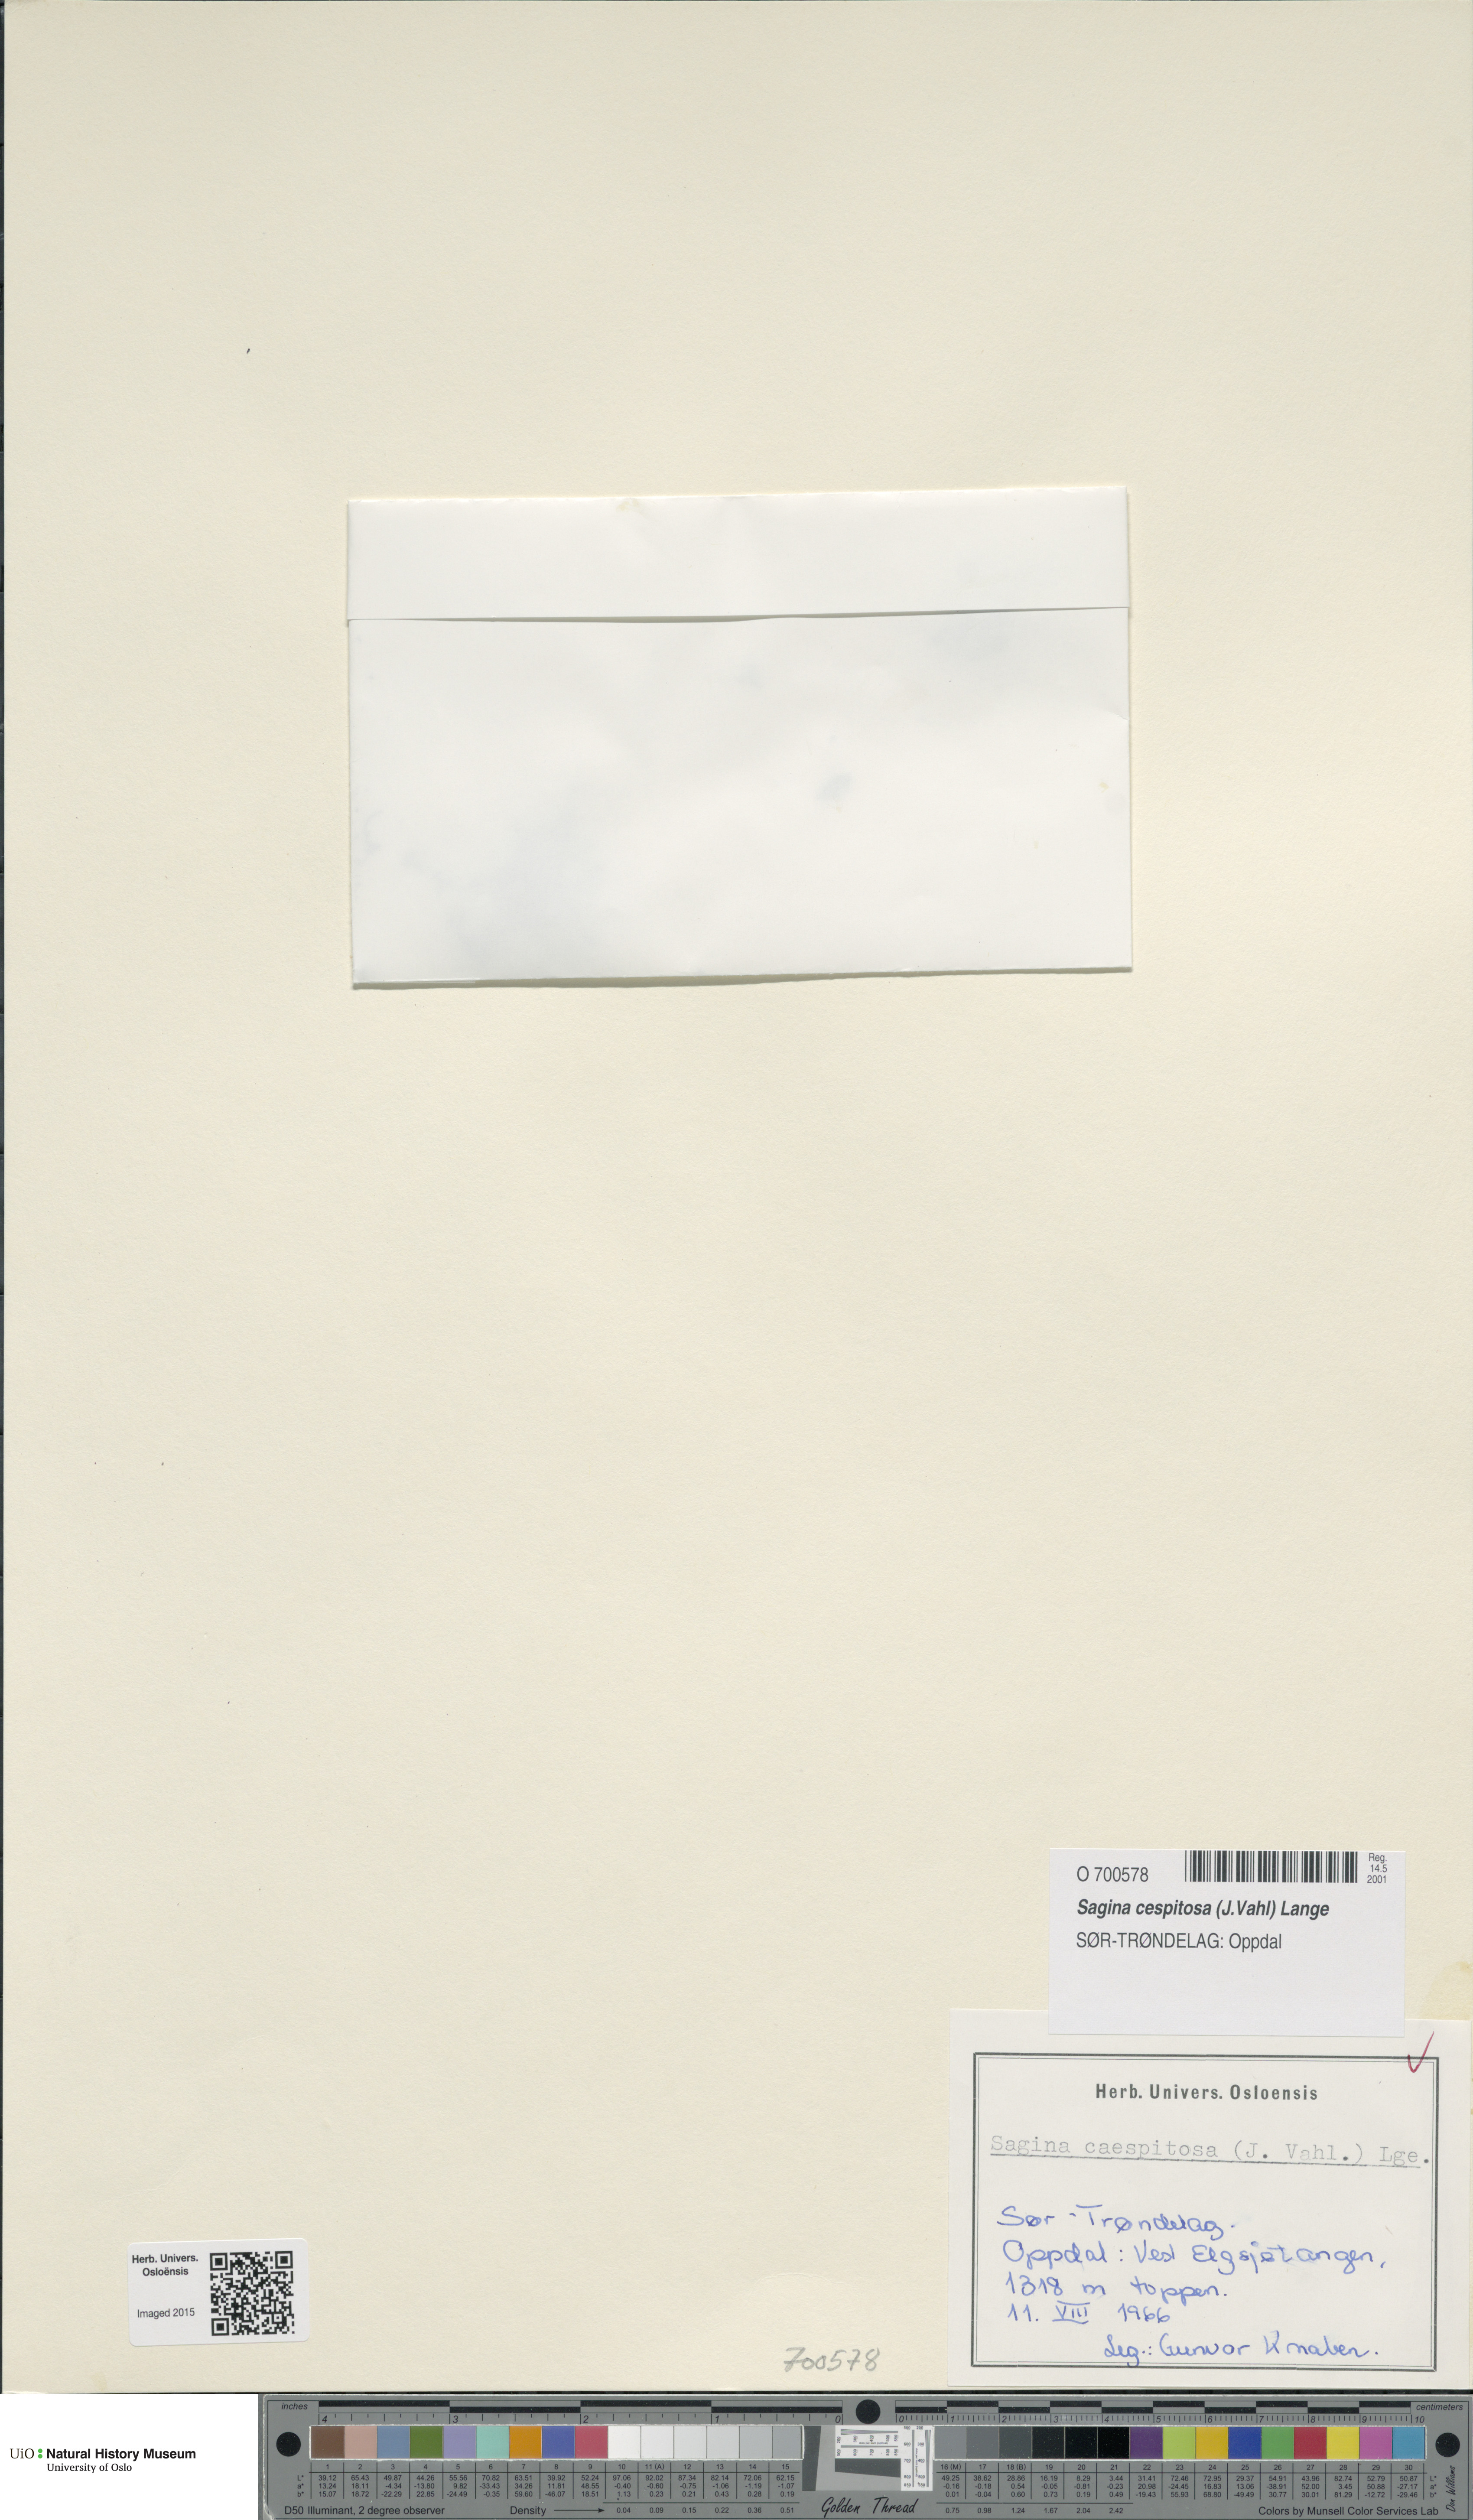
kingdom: Plantae
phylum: Tracheophyta
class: Magnoliopsida
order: Caryophyllales
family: Caryophyllaceae
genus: Sagina
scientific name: Sagina caespitosa
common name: Tufted pearlwort
